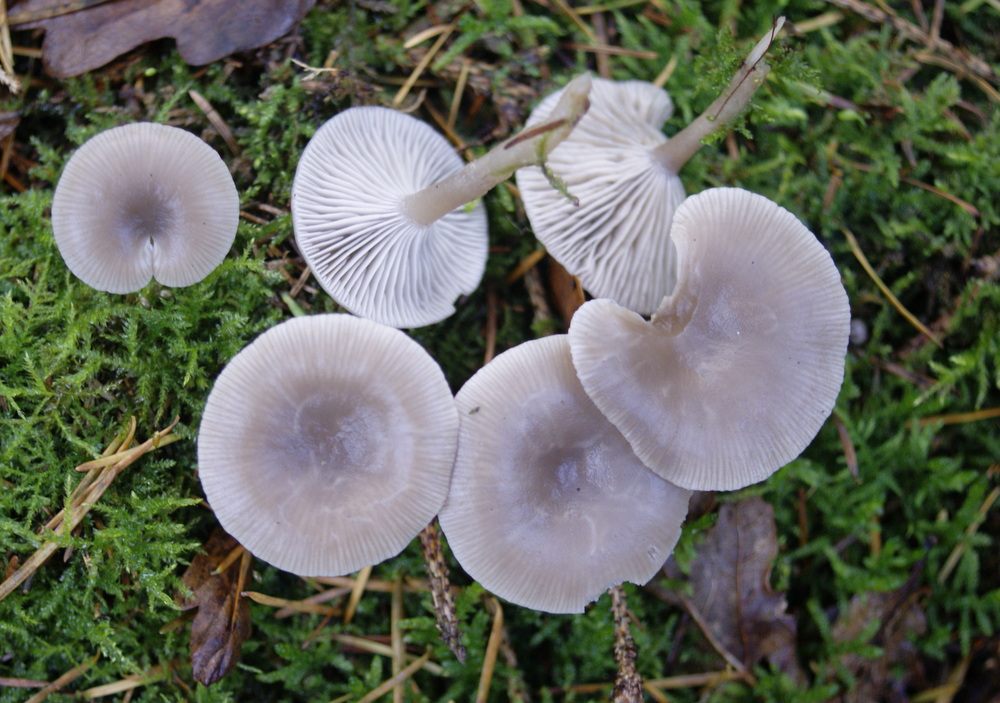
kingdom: Fungi
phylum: Basidiomycota
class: Agaricomycetes
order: Agaricales
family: Tricholomataceae
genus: Clitocybe
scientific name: Clitocybe vibecina
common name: randstribet tragthat
